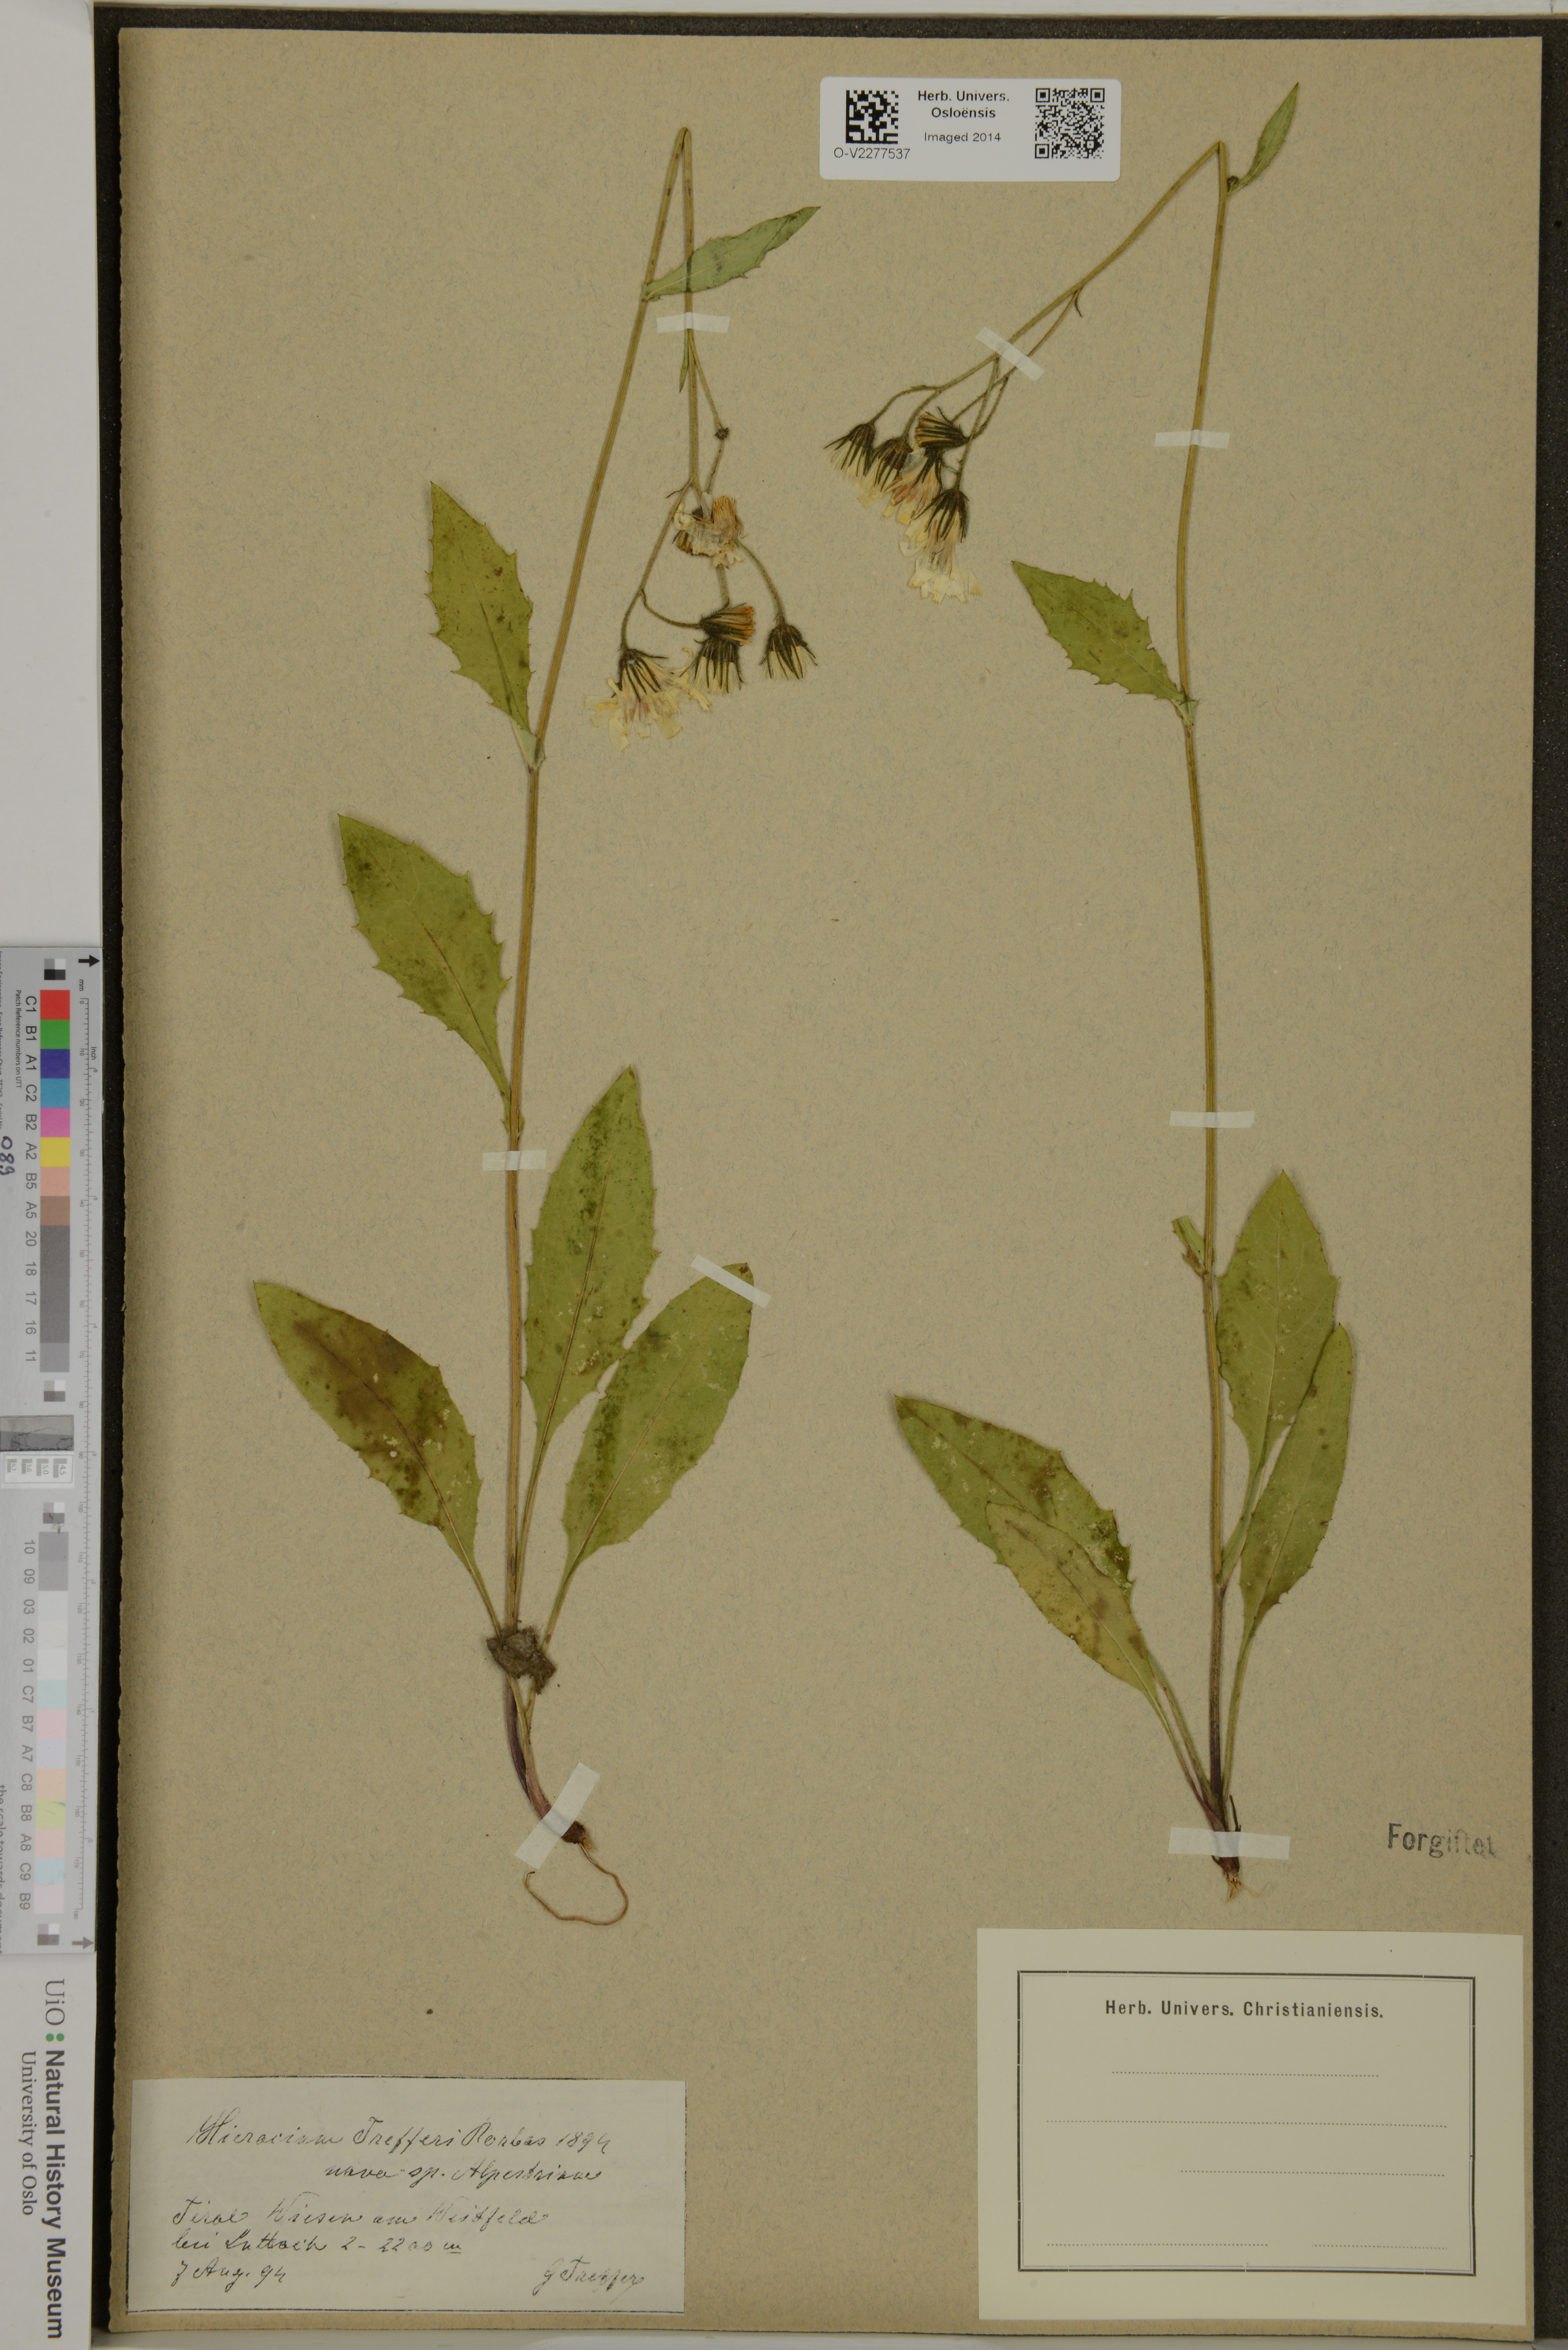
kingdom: Plantae
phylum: Tracheophyta
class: Magnoliopsida
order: Asterales
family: Asteraceae
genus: Hieracium
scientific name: Hieracium
